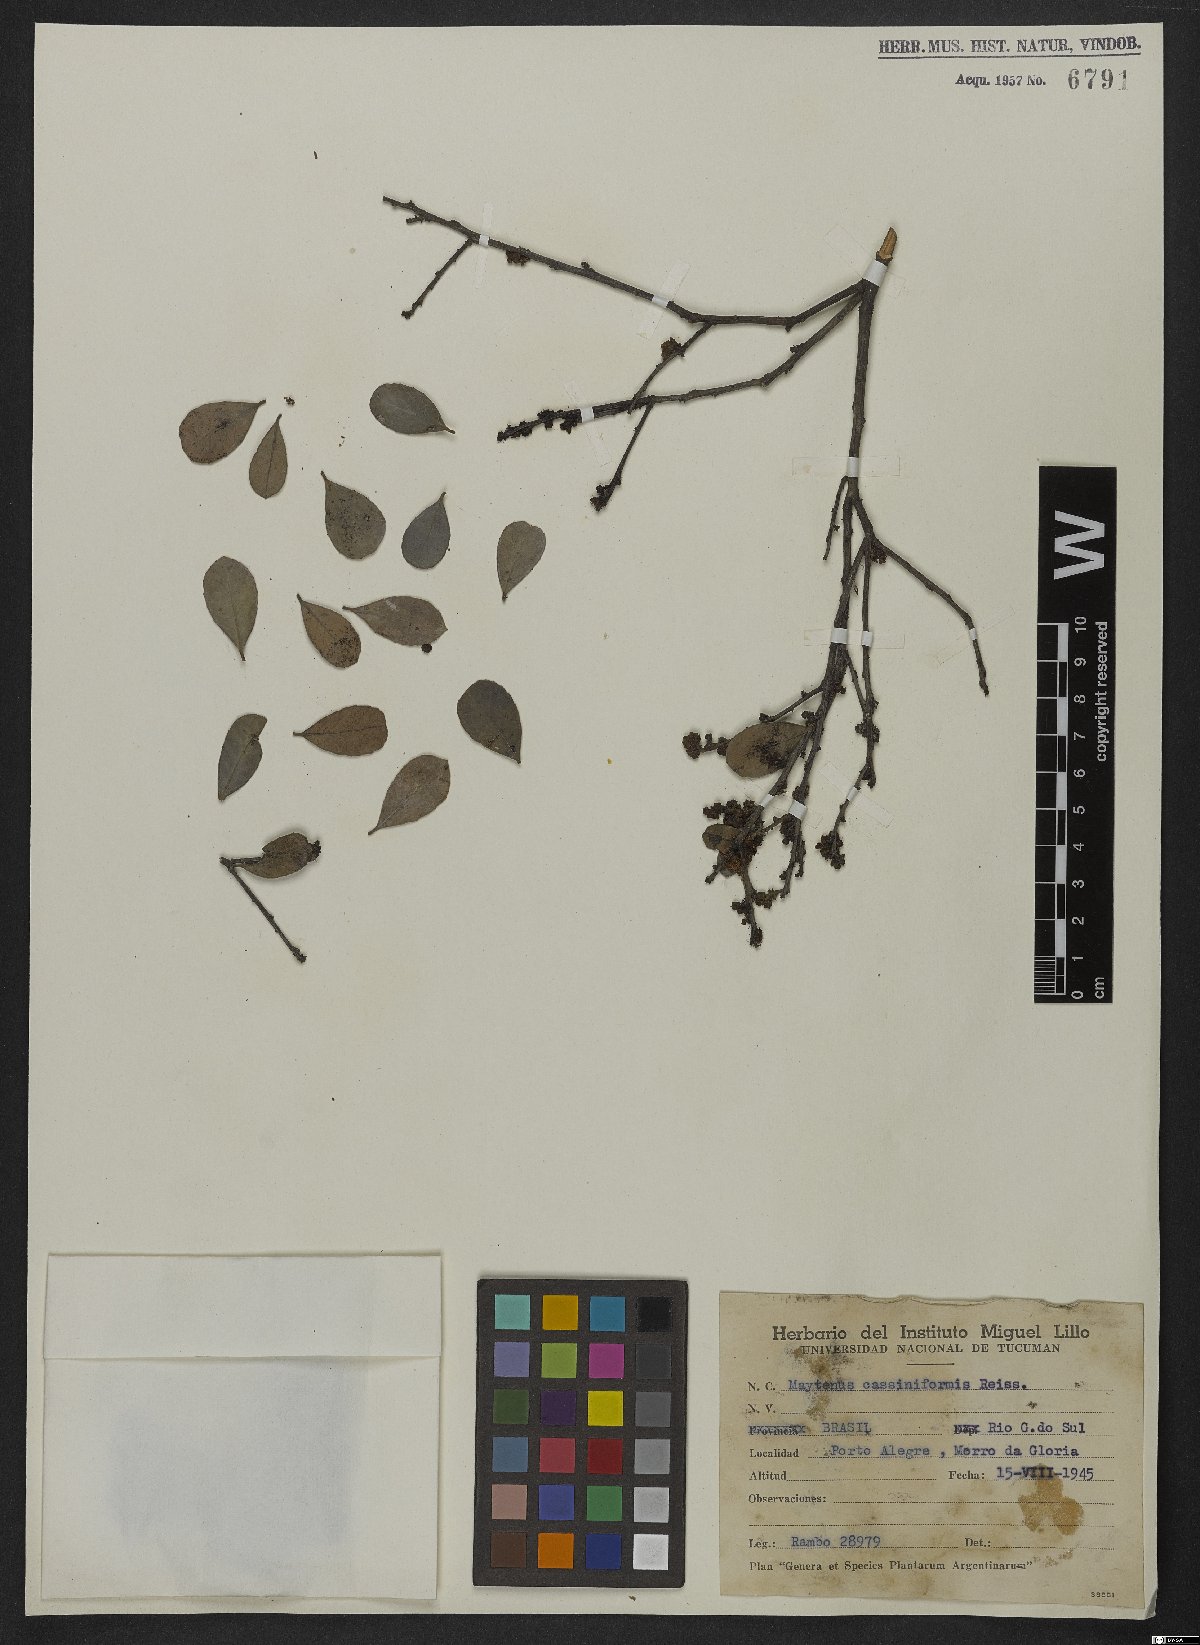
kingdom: Plantae
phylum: Tracheophyta
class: Magnoliopsida
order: Celastrales
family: Celastraceae
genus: Monteverdia
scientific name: Monteverdia cassineformis
